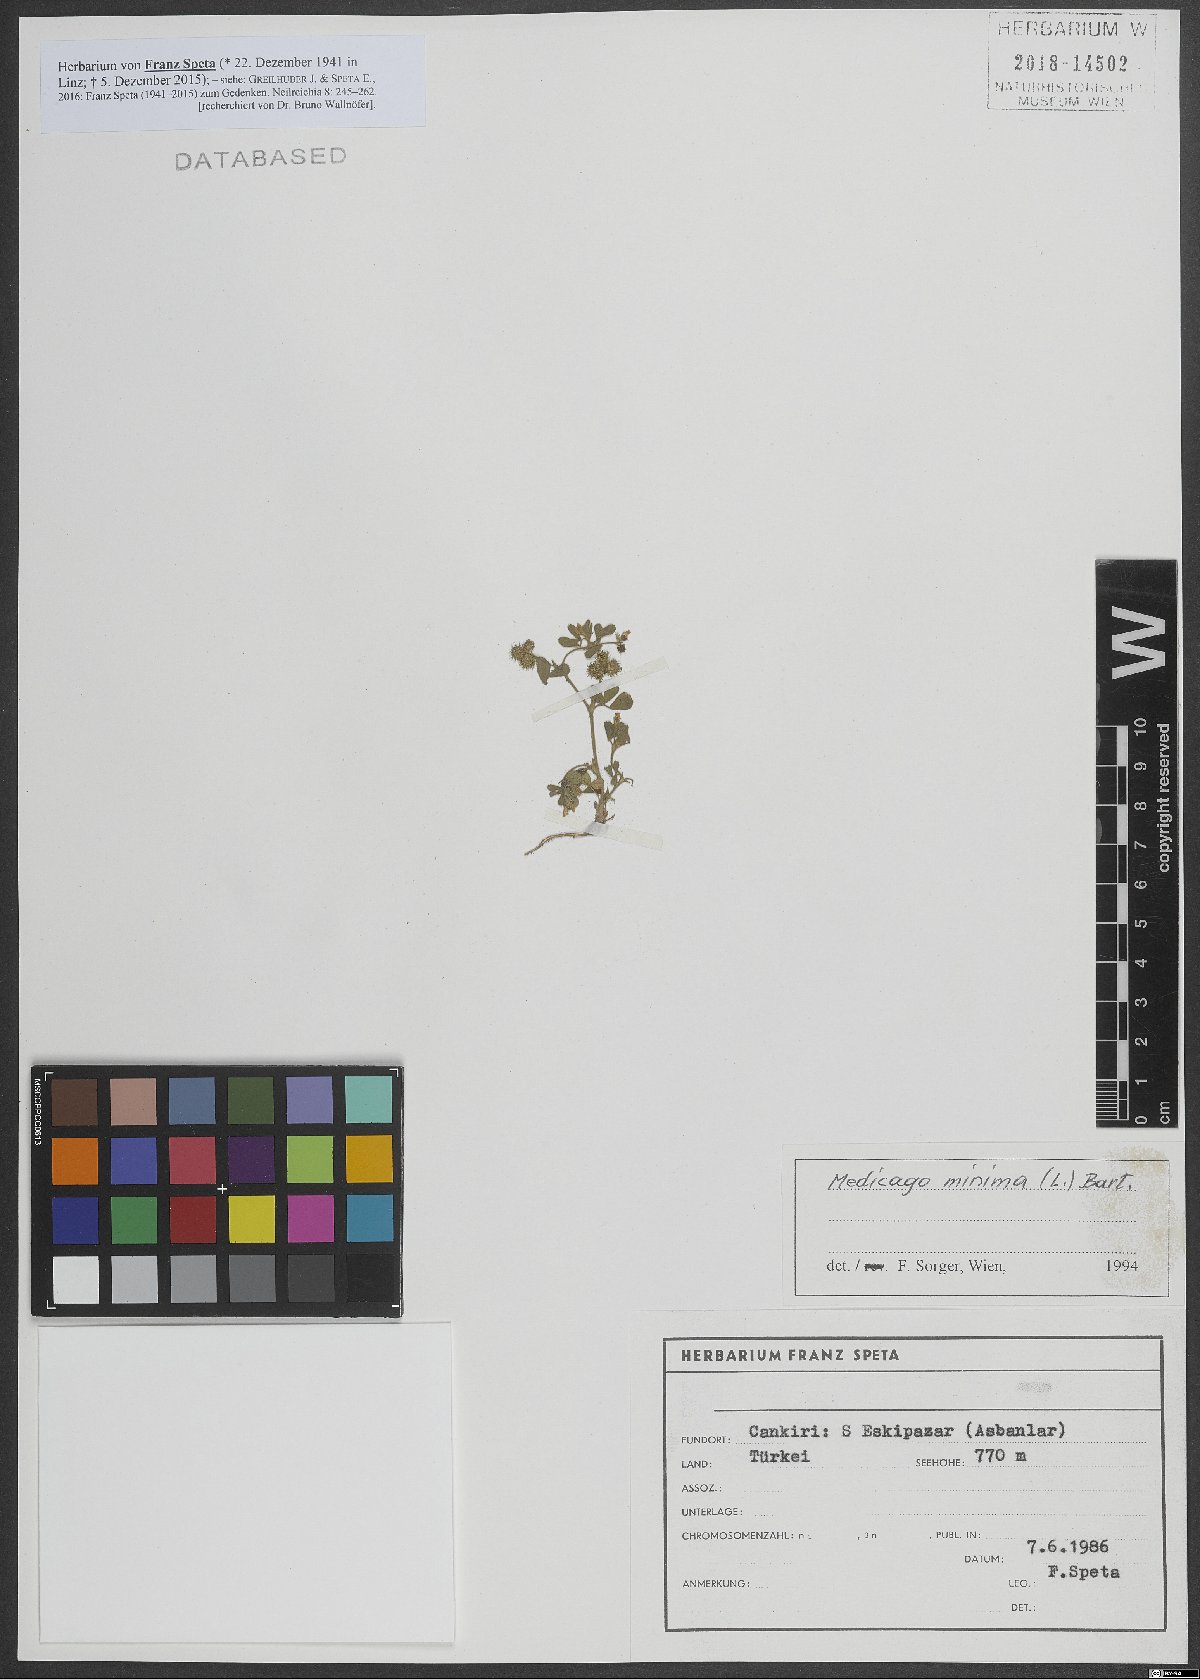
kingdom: Plantae
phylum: Tracheophyta
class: Magnoliopsida
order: Fabales
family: Fabaceae
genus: Medicago
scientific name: Medicago minima
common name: Little bur-clover
